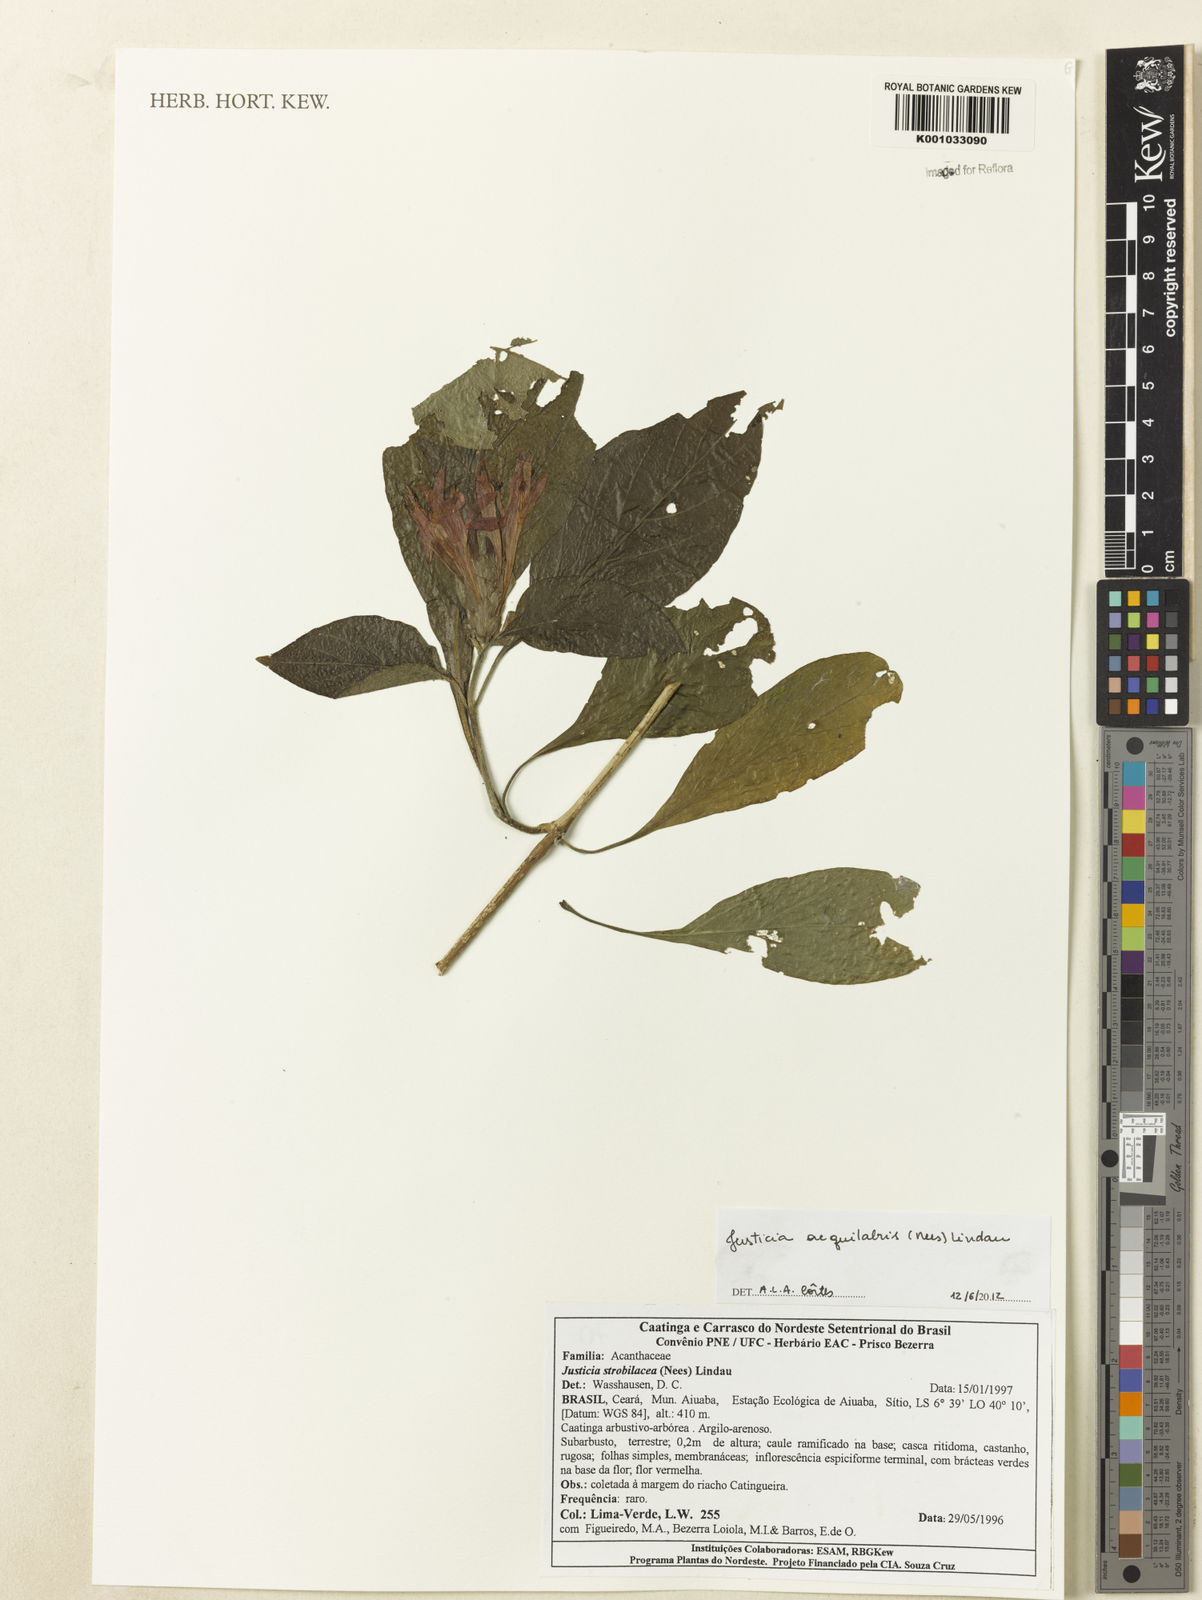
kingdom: Plantae
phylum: Tracheophyta
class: Magnoliopsida
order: Lamiales
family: Acanthaceae
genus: Justicia
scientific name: Justicia aequalis
